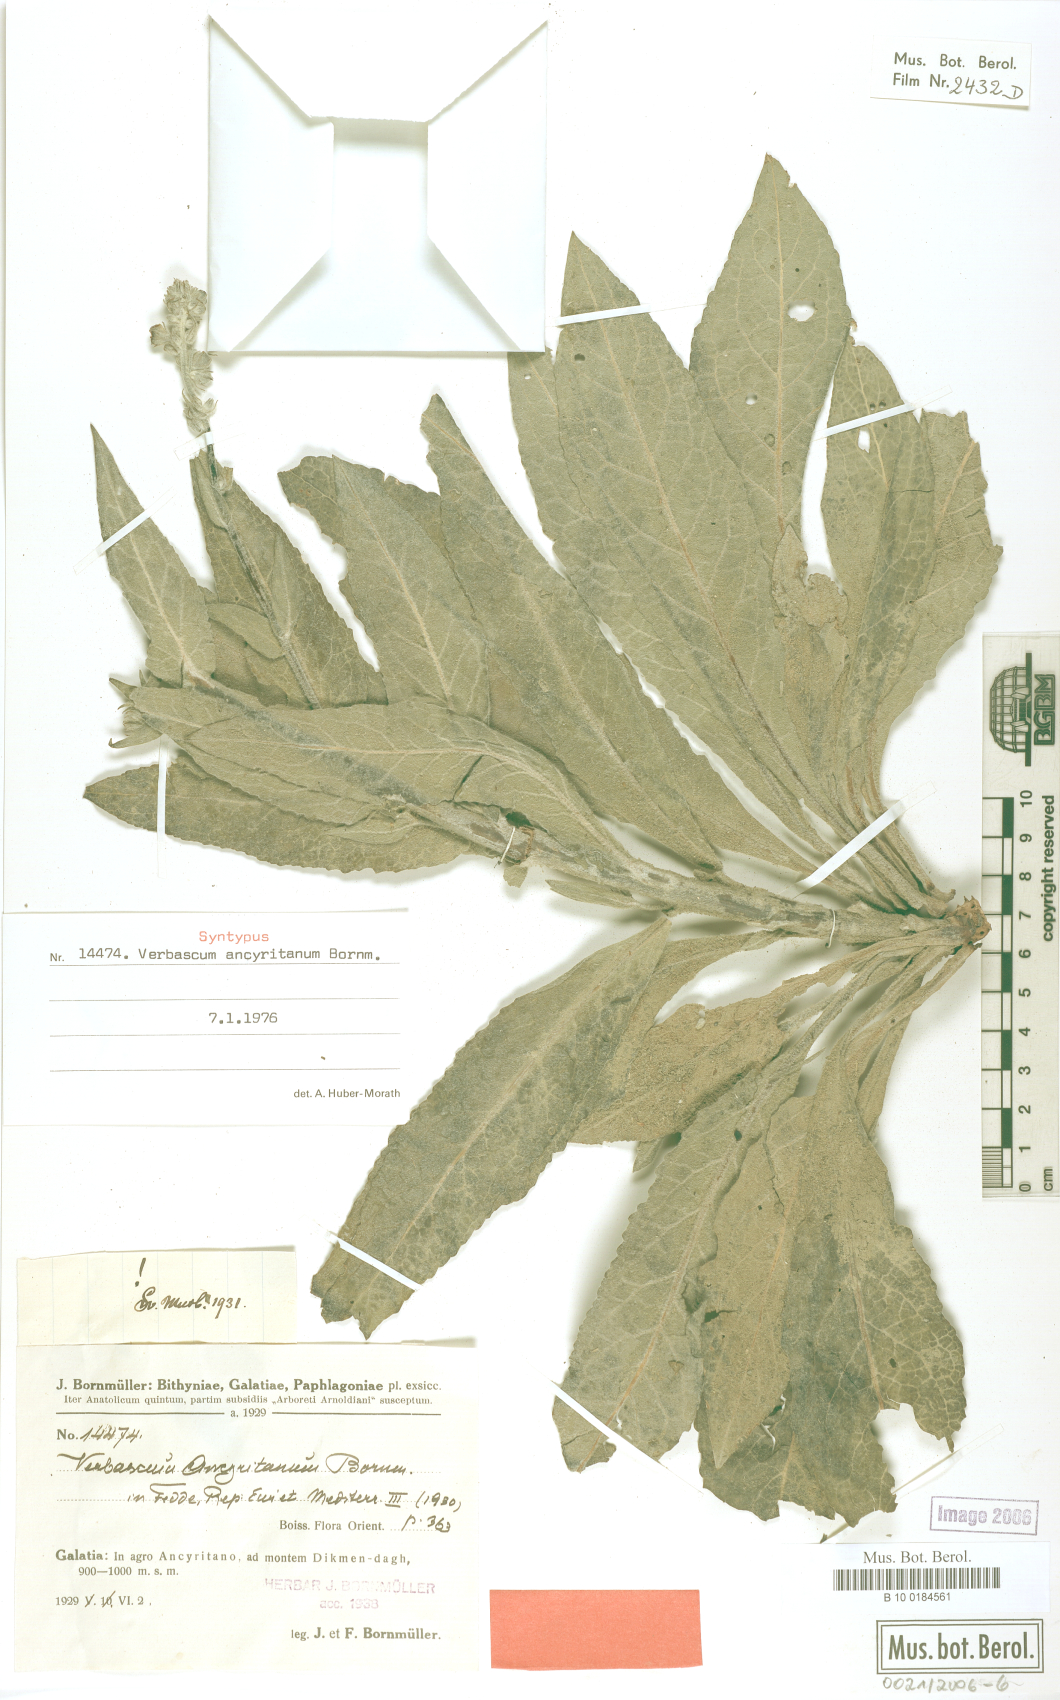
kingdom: Plantae
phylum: Tracheophyta
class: Magnoliopsida
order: Lamiales
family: Scrophulariaceae
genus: Verbascum
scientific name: Verbascum ancyritanum
